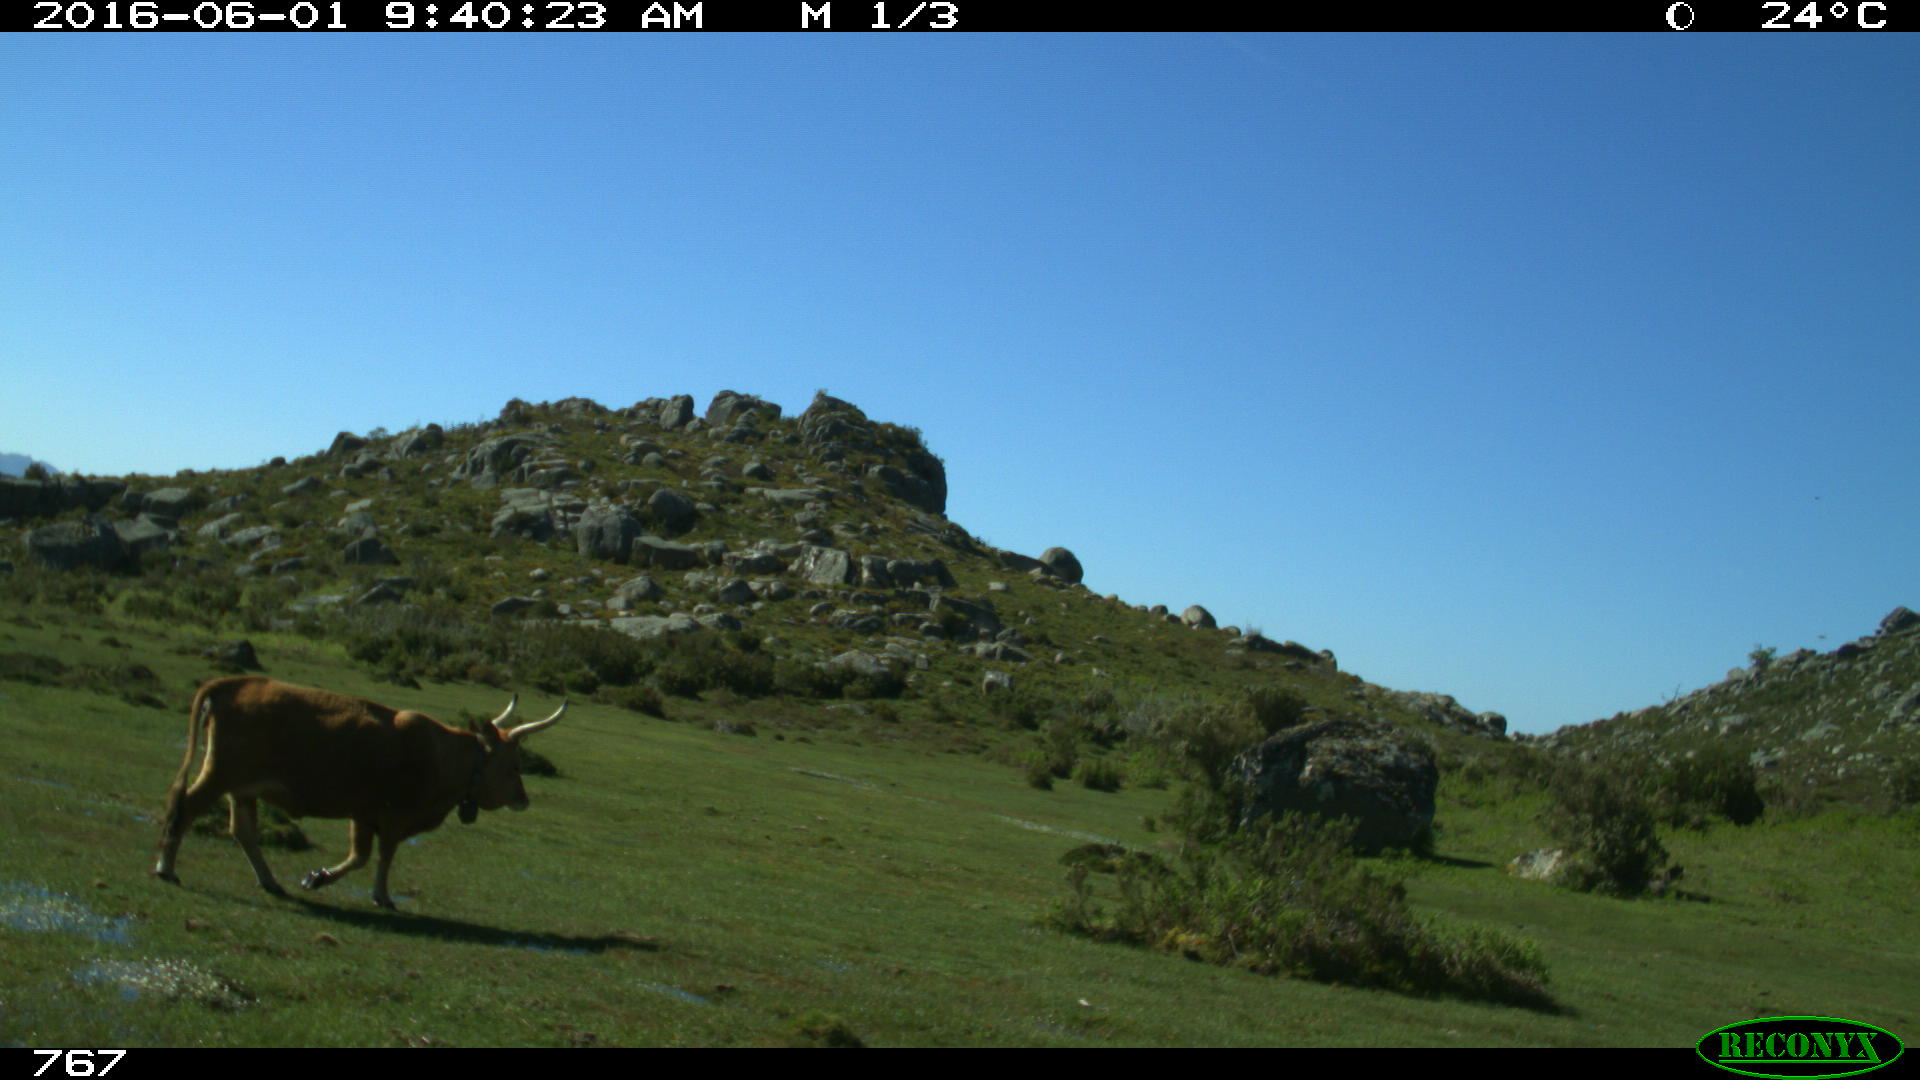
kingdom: Animalia
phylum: Chordata
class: Mammalia
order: Artiodactyla
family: Bovidae
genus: Bos
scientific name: Bos taurus
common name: Domesticated cattle
